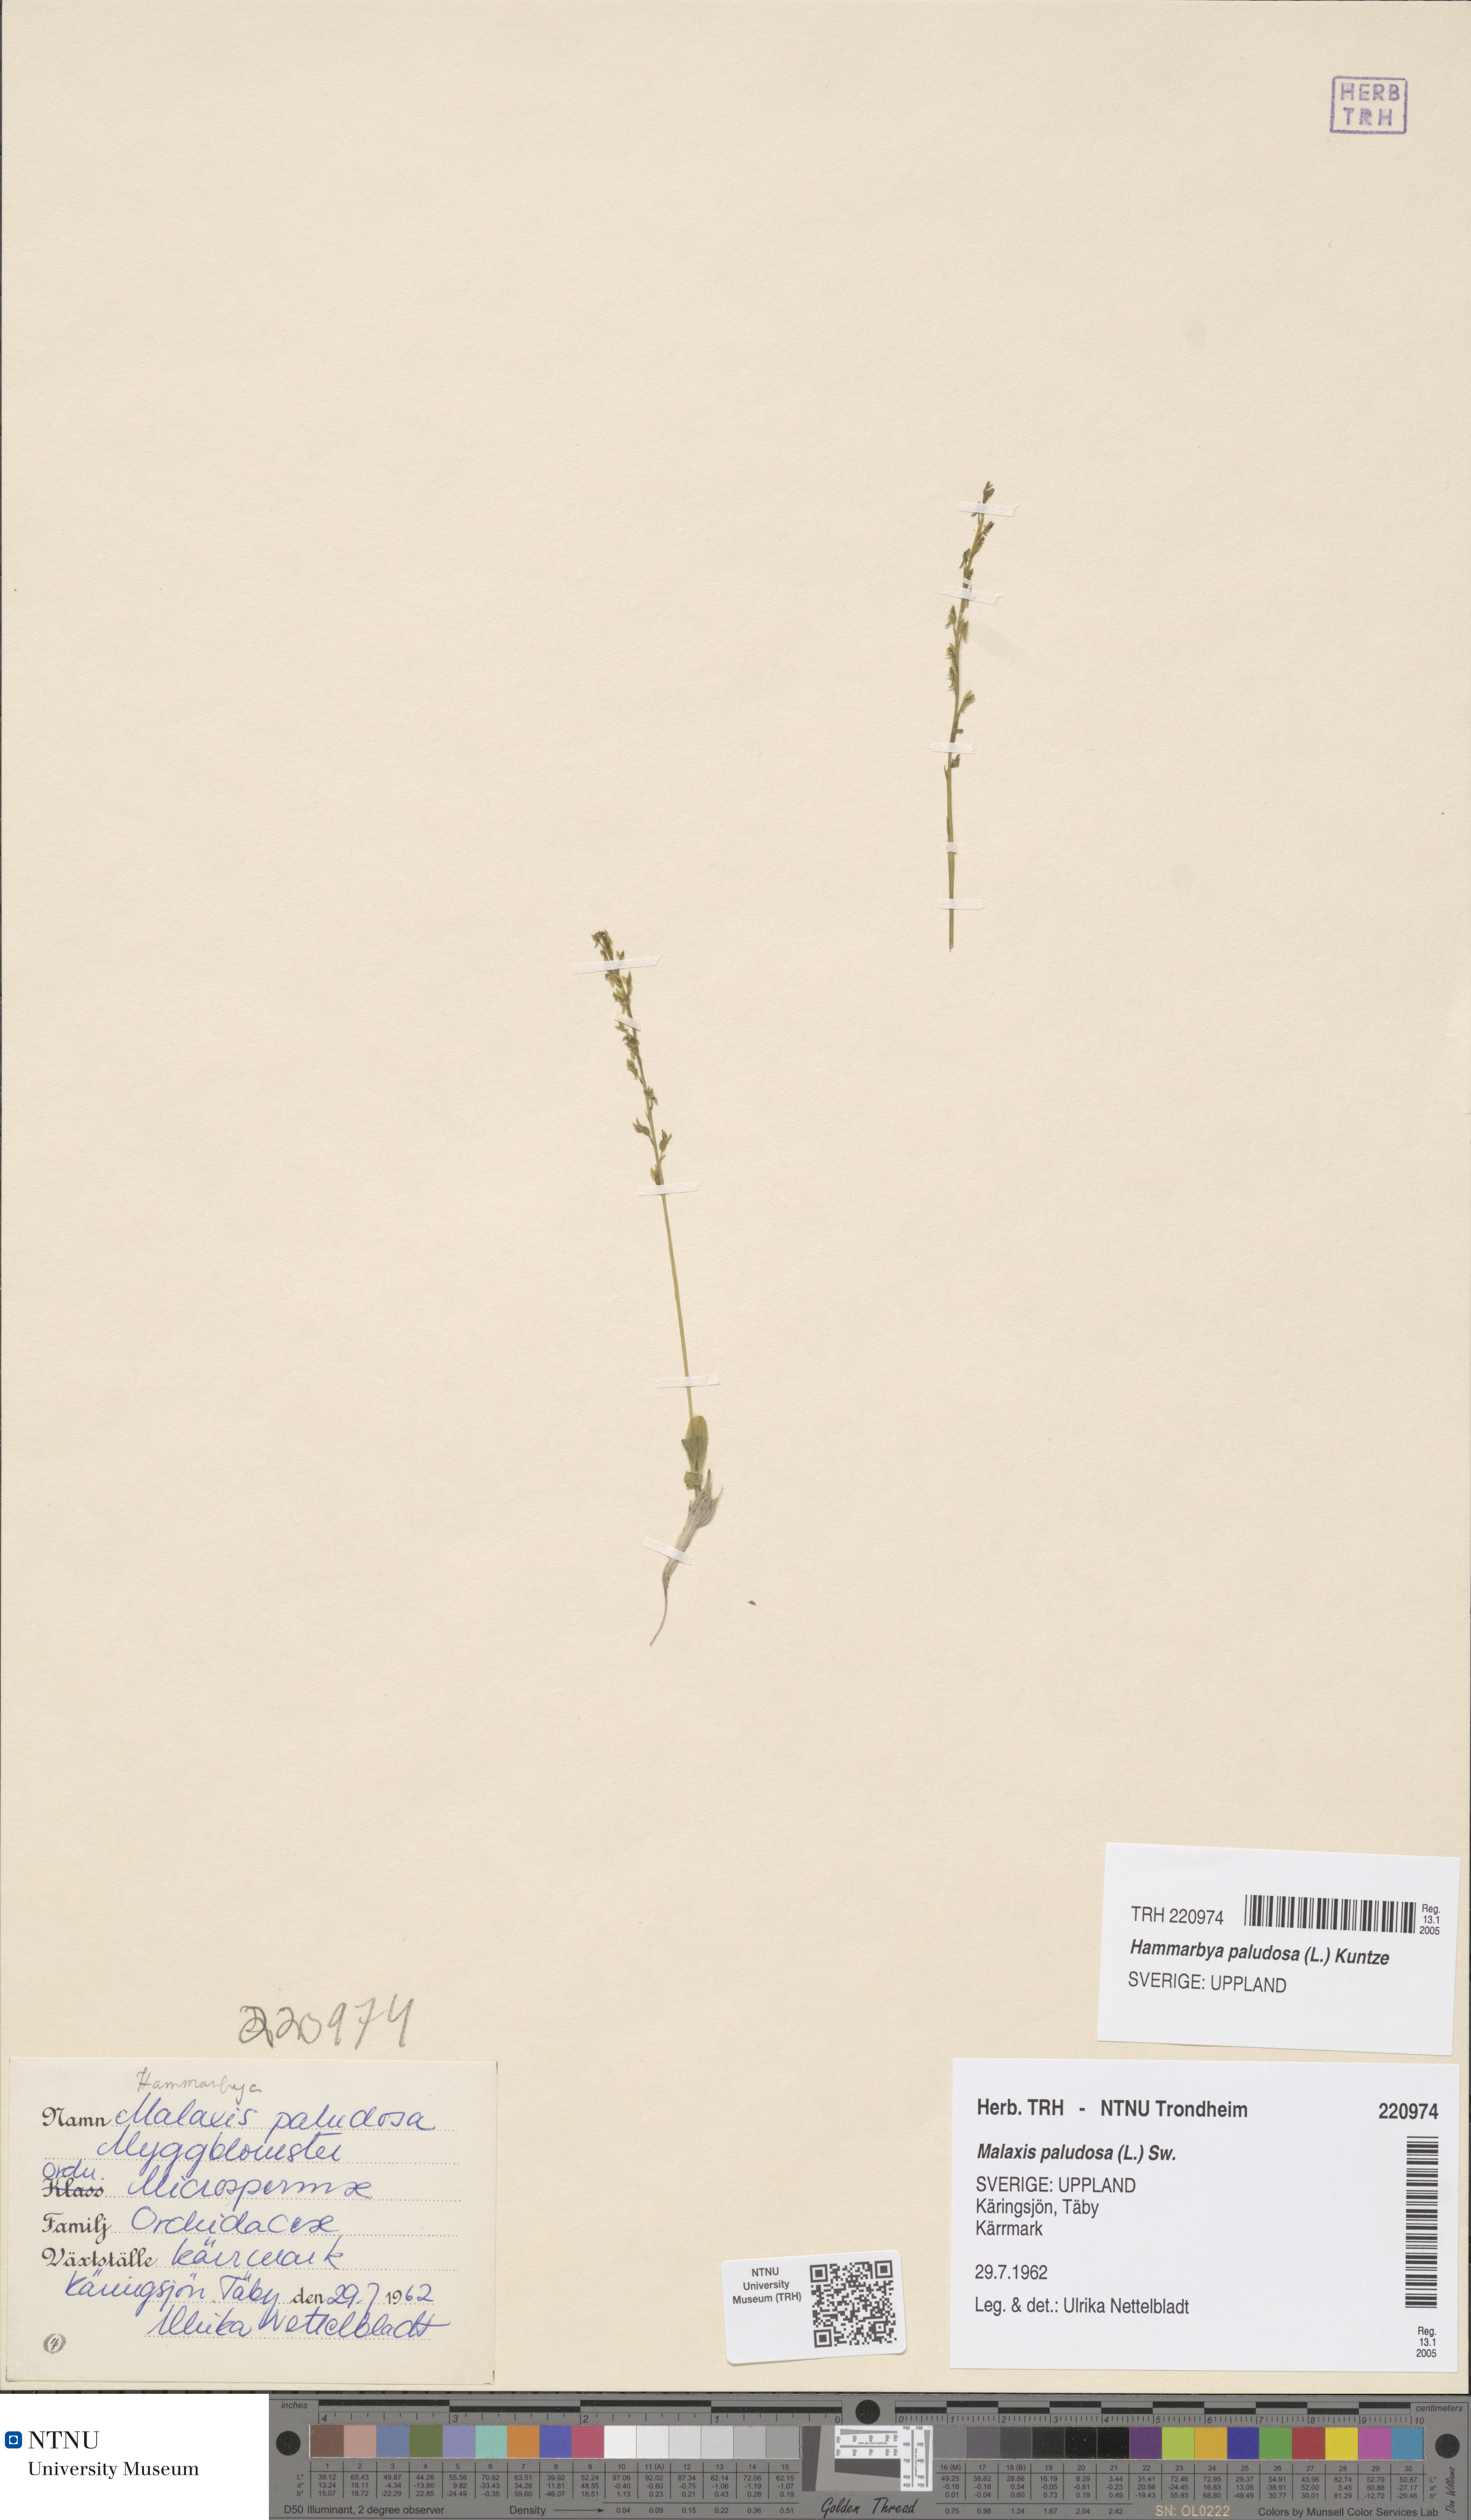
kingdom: Plantae
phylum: Tracheophyta
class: Liliopsida
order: Asparagales
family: Orchidaceae
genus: Hammarbya
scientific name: Hammarbya paludosa
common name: Bog orchid
